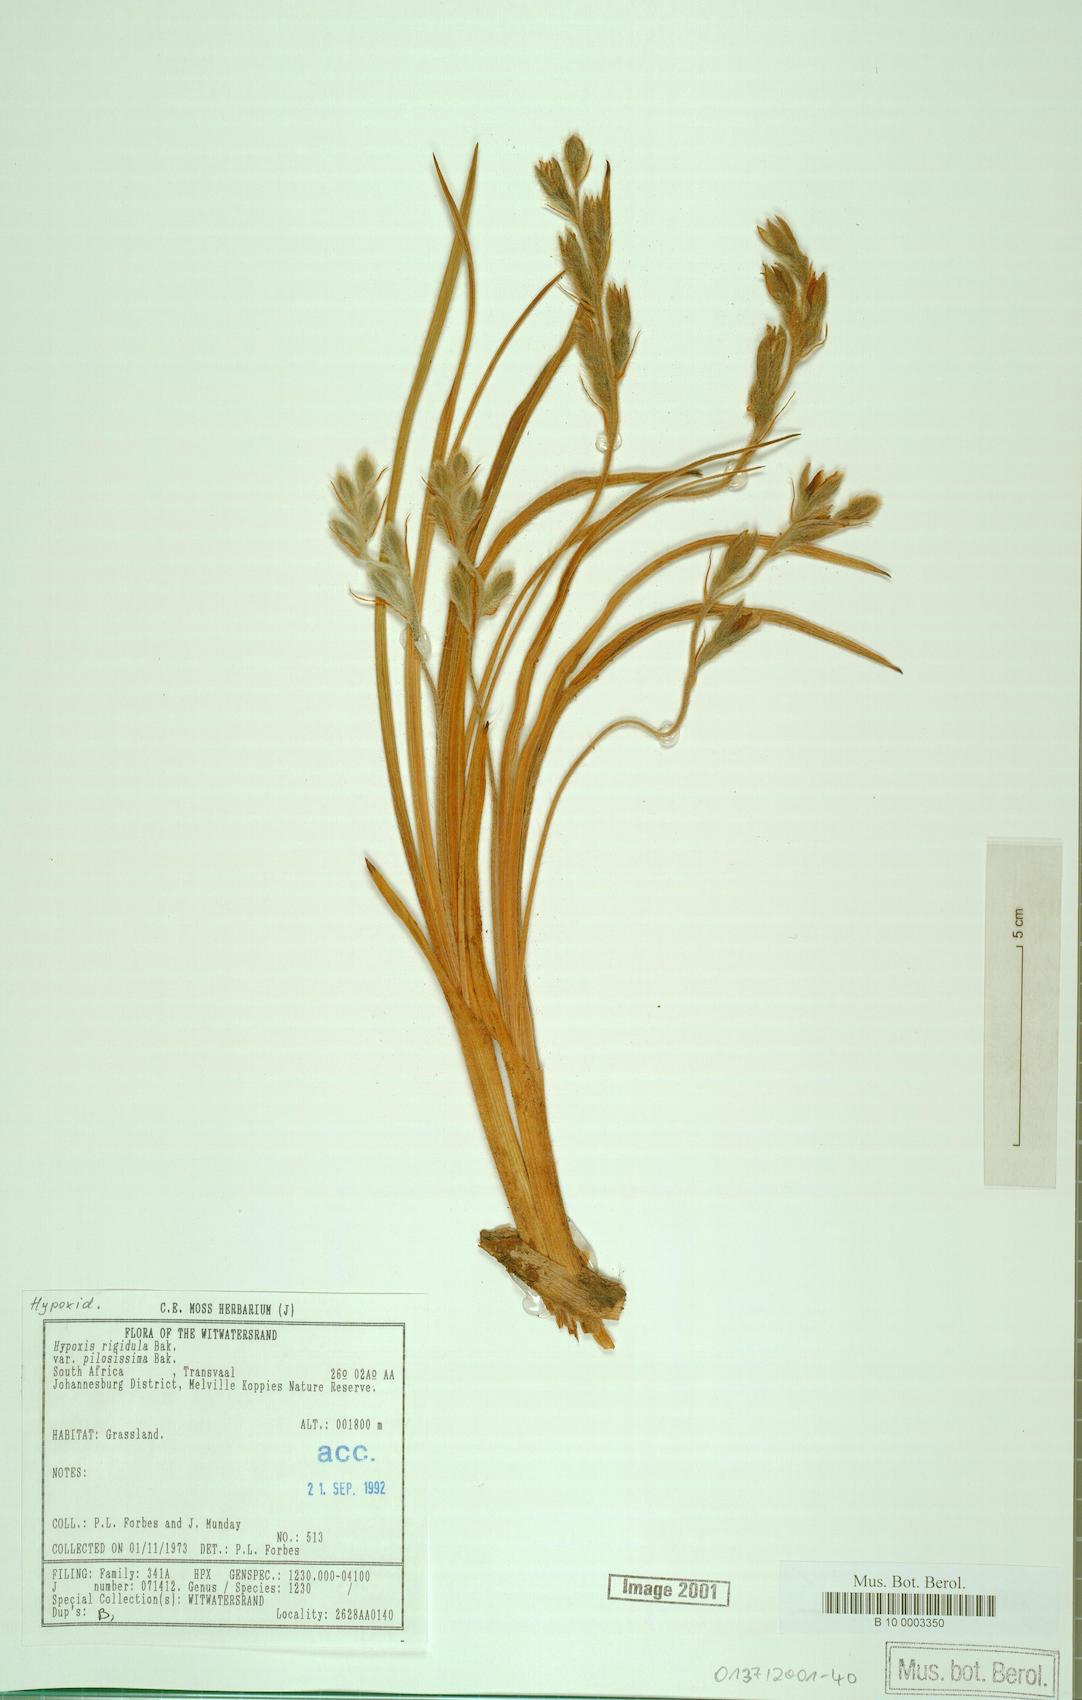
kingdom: Plantae
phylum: Tracheophyta
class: Liliopsida
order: Asparagales
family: Hypoxidaceae
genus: Hypoxis
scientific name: Hypoxis rigidula
